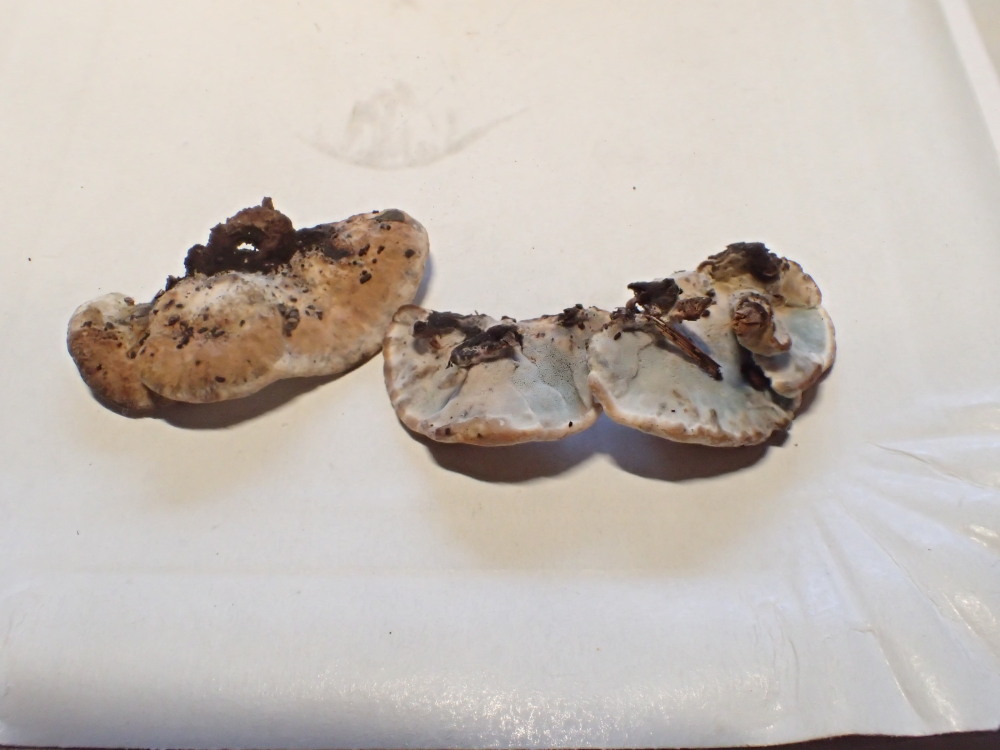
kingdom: Fungi
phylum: Basidiomycota
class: Agaricomycetes
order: Polyporales
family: Phanerochaetaceae
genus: Bjerkandera
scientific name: Bjerkandera adusta
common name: sveden sodporesvamp
